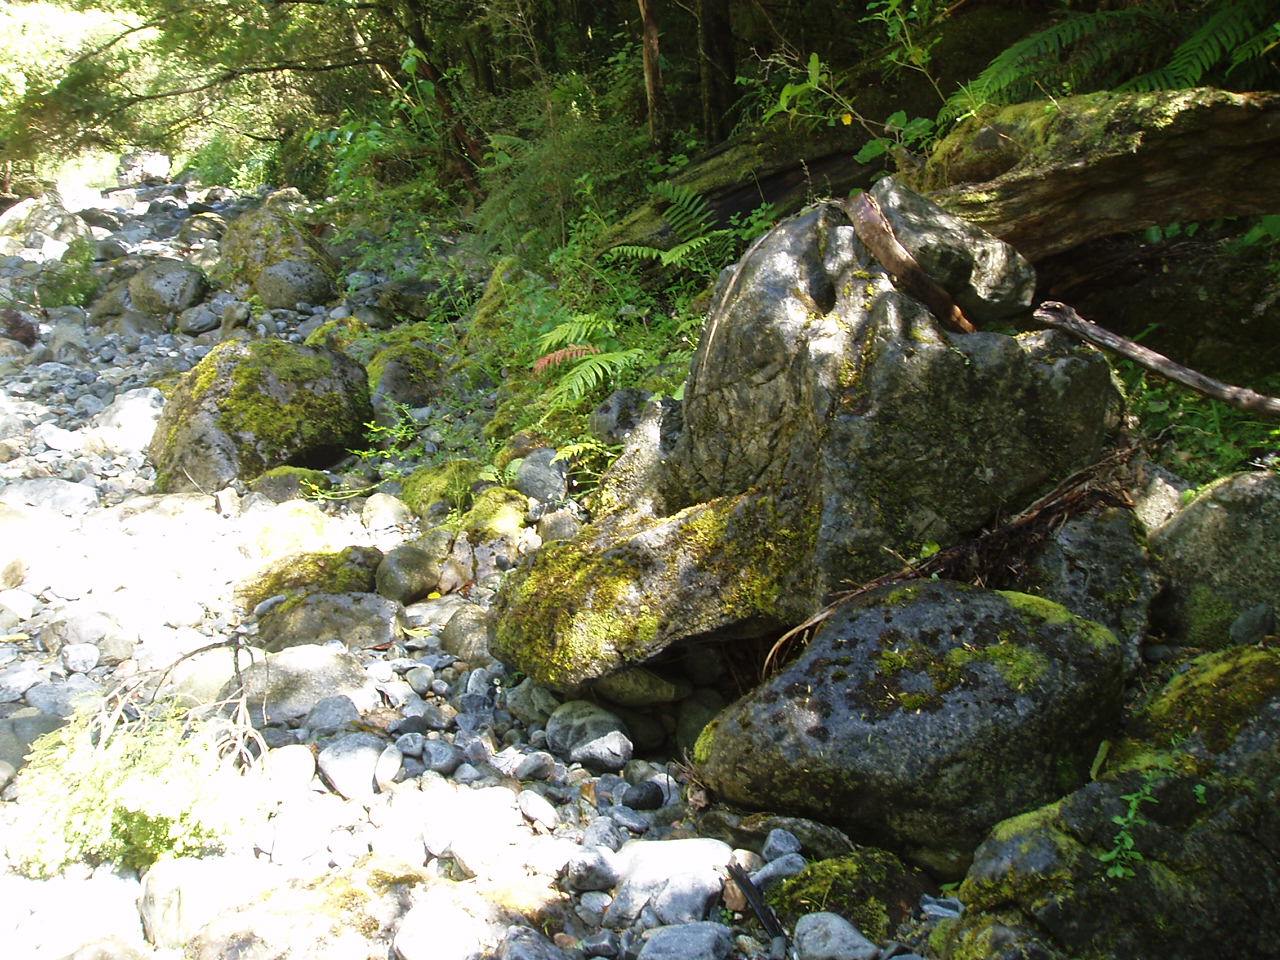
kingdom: Plantae
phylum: Bryophyta
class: Bryopsida
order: Pottiales
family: Pottiaceae
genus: Tortella
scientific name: Tortella knightii
